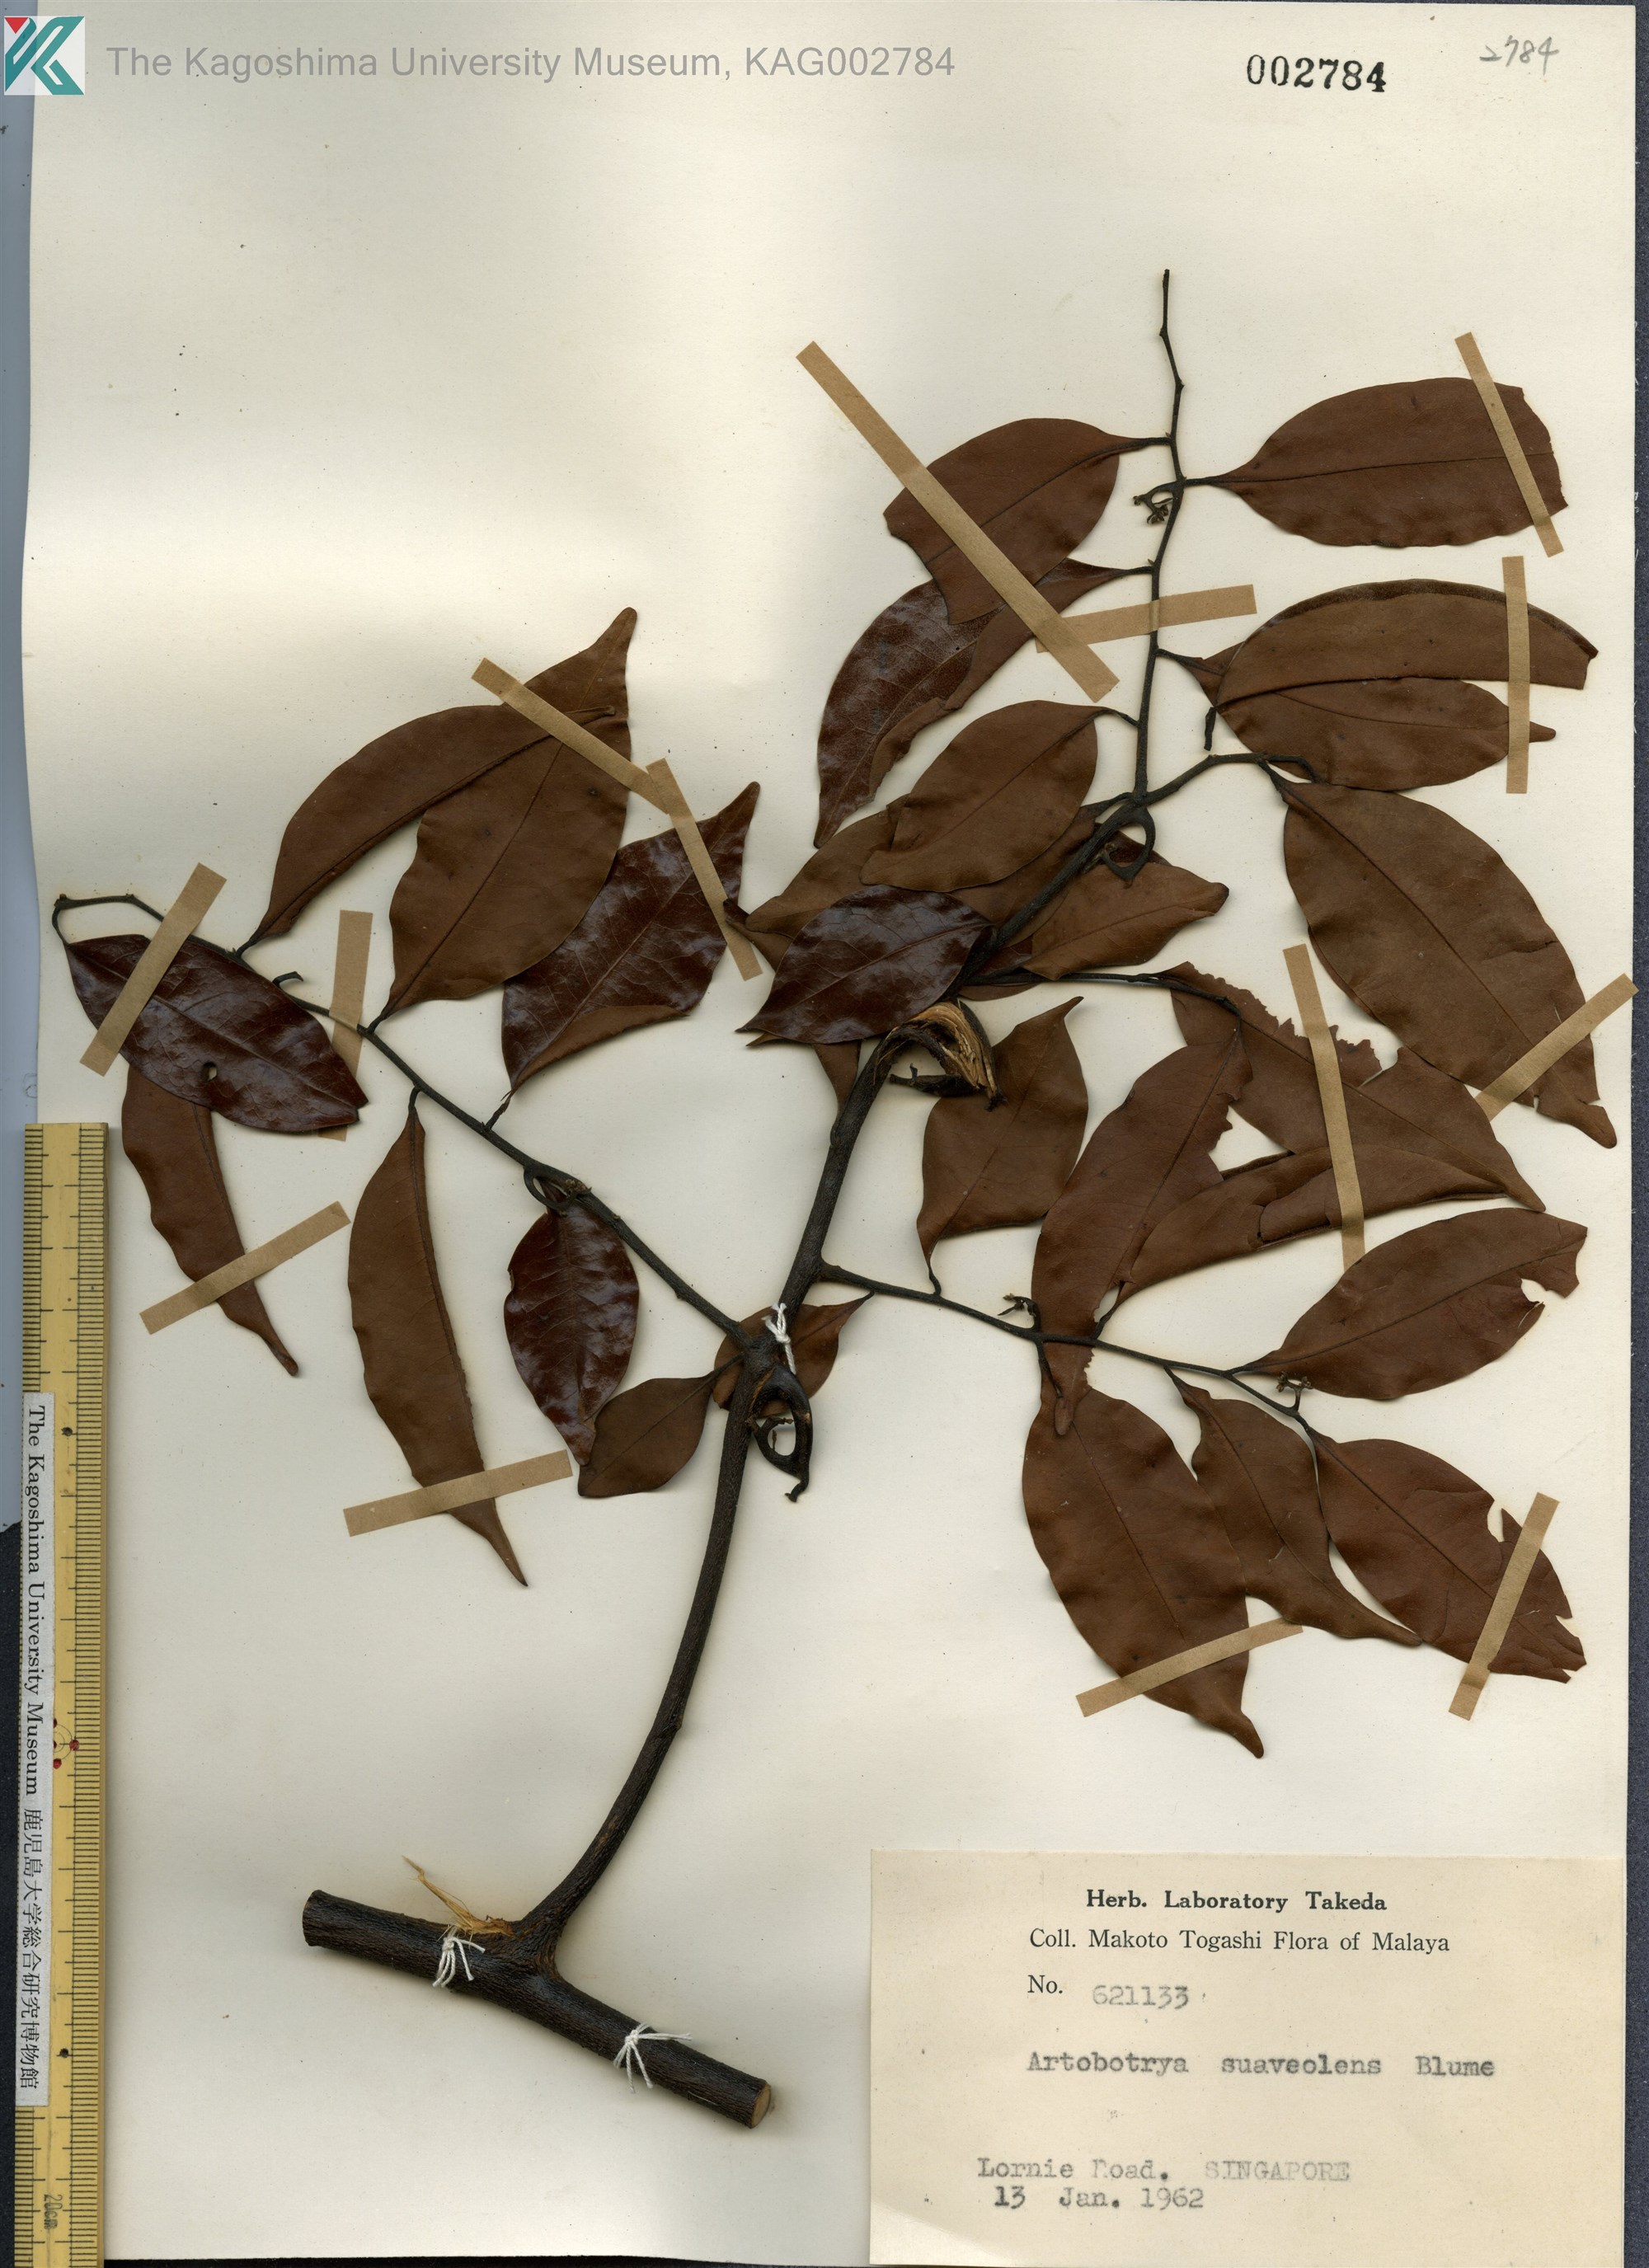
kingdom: Plantae
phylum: Tracheophyta
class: Magnoliopsida
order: Magnoliales
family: Annonaceae
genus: Artabotrys
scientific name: Artabotrys suaveolens
